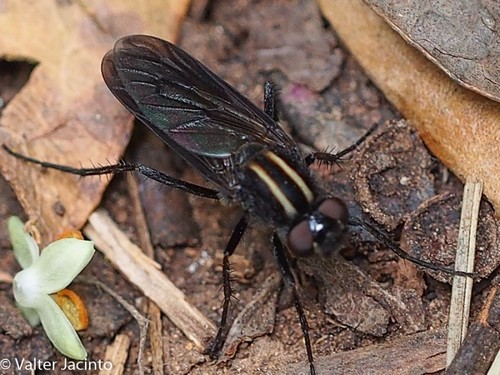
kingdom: Animalia
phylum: Arthropoda
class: Insecta
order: Diptera
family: Therevidae
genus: Thereva
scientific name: Thereva albovittata
